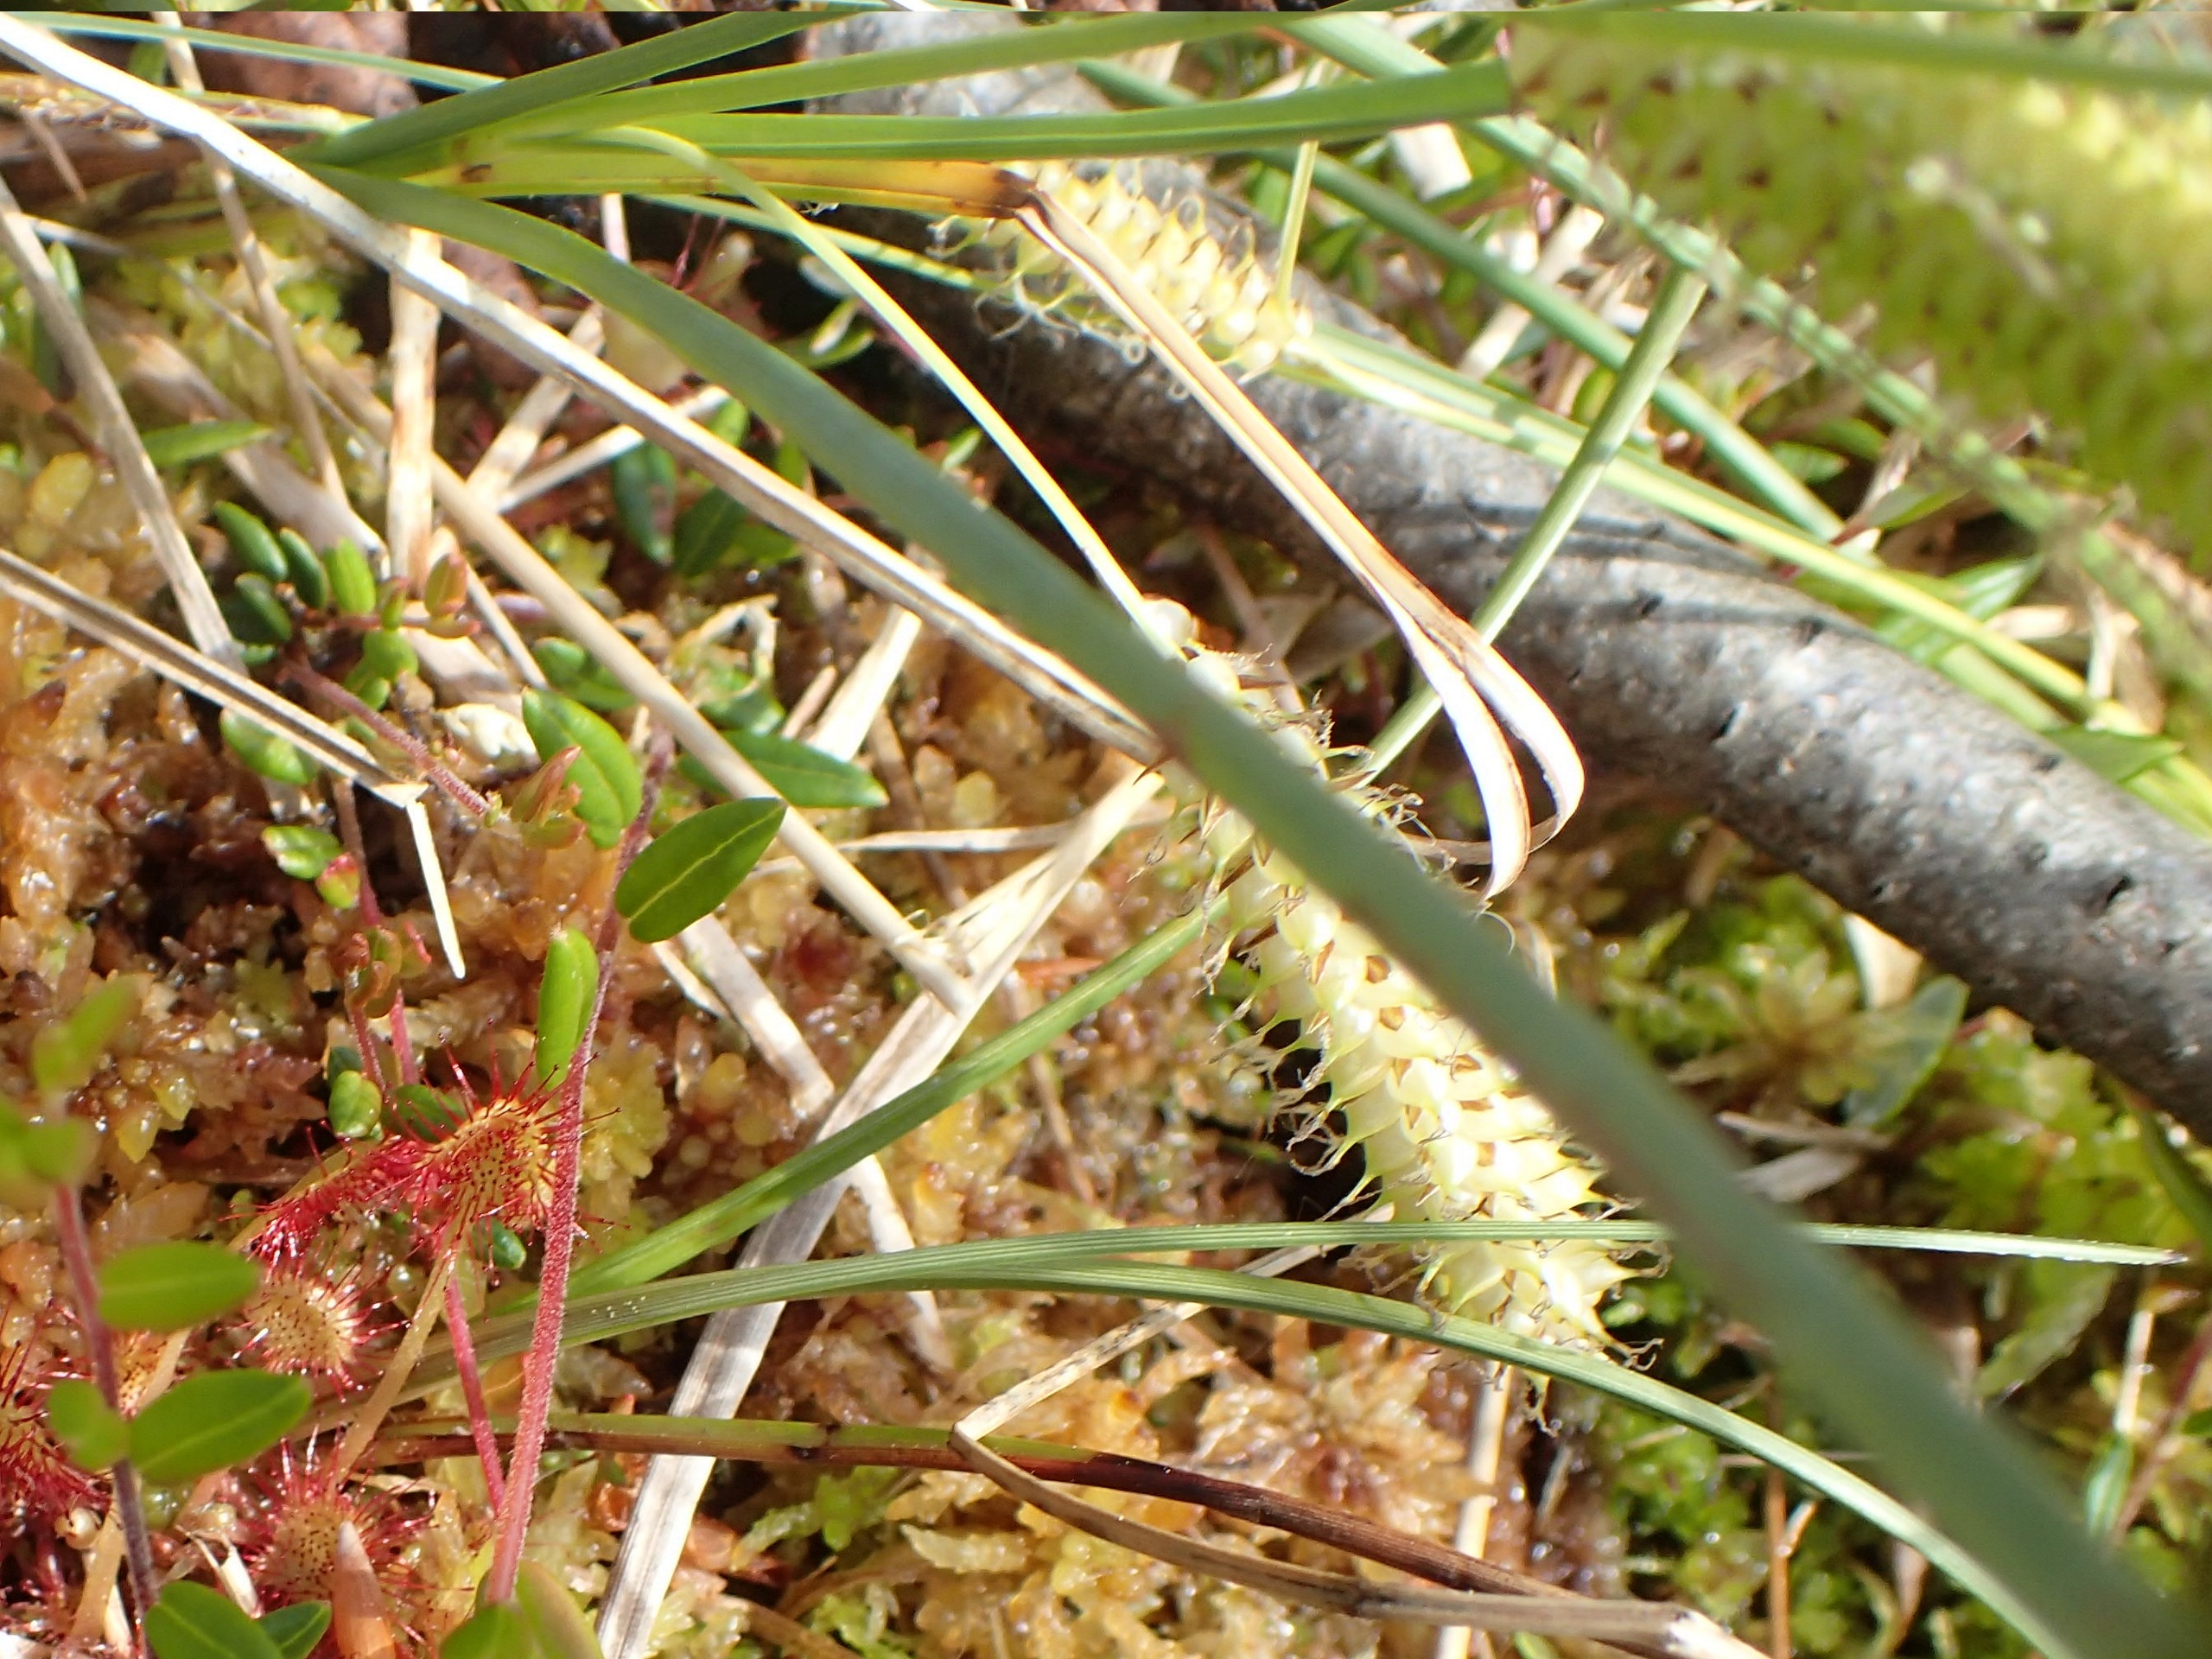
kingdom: Plantae
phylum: Tracheophyta
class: Liliopsida
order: Poales
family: Cyperaceae
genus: Carex
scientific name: Carex rostrata
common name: Næb-star
